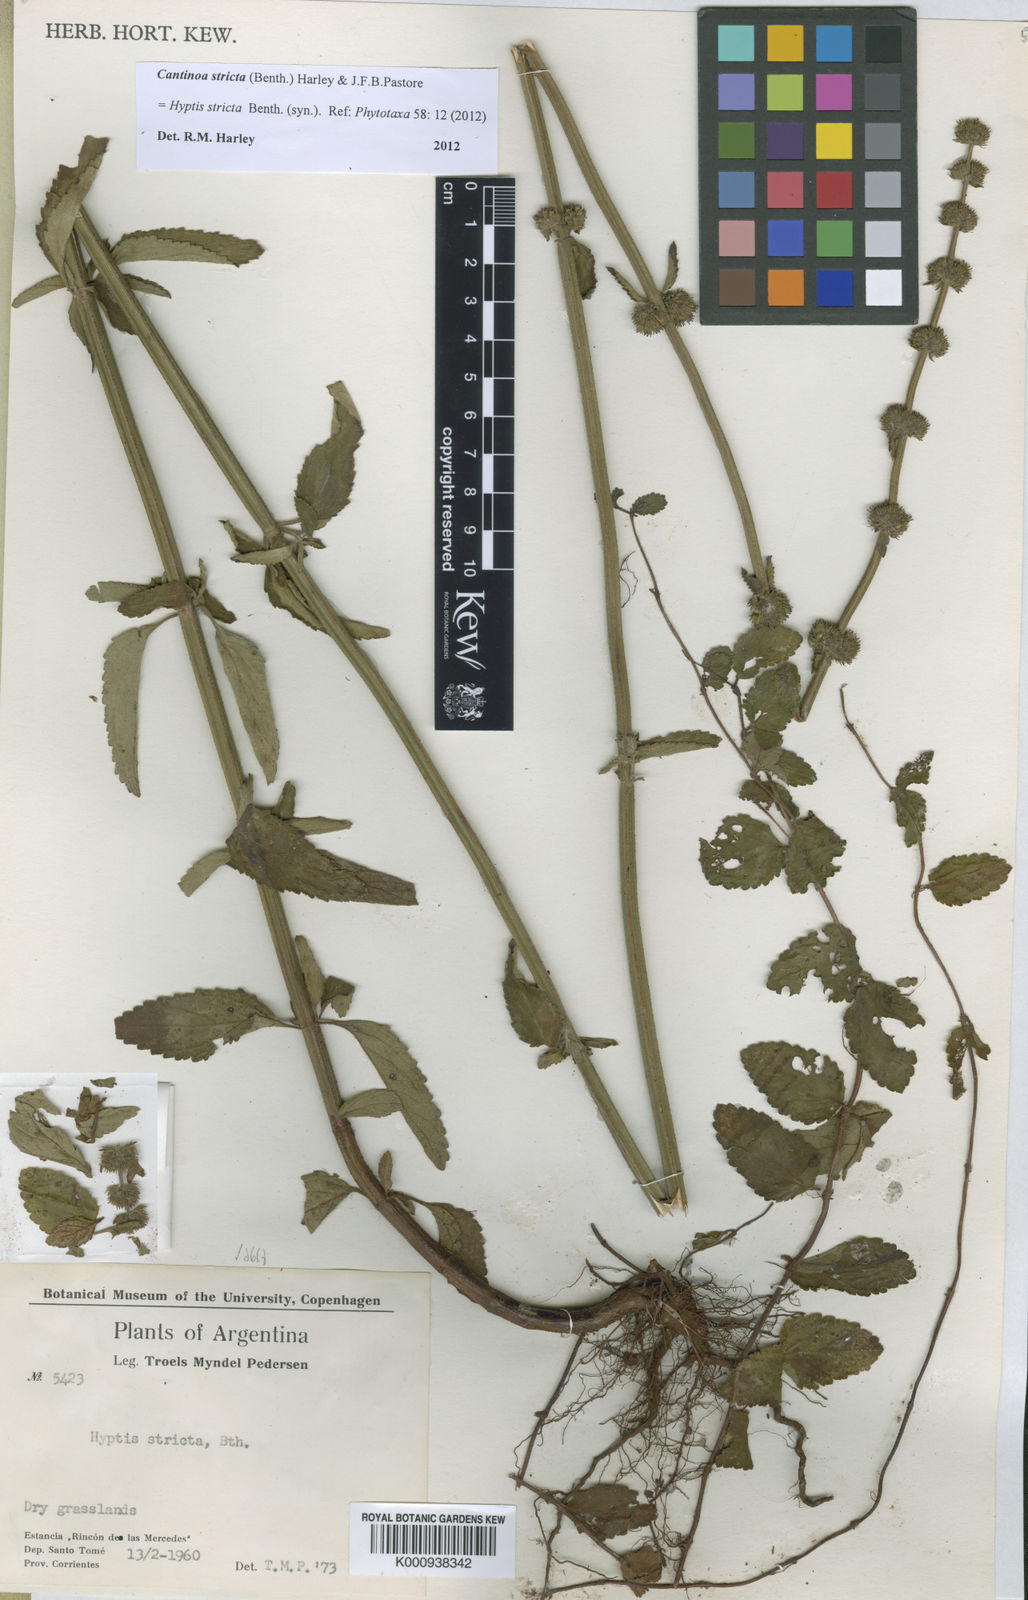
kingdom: Plantae
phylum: Tracheophyta
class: Magnoliopsida
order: Lamiales
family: Lamiaceae
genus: Cantinoa
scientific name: Cantinoa stricta
